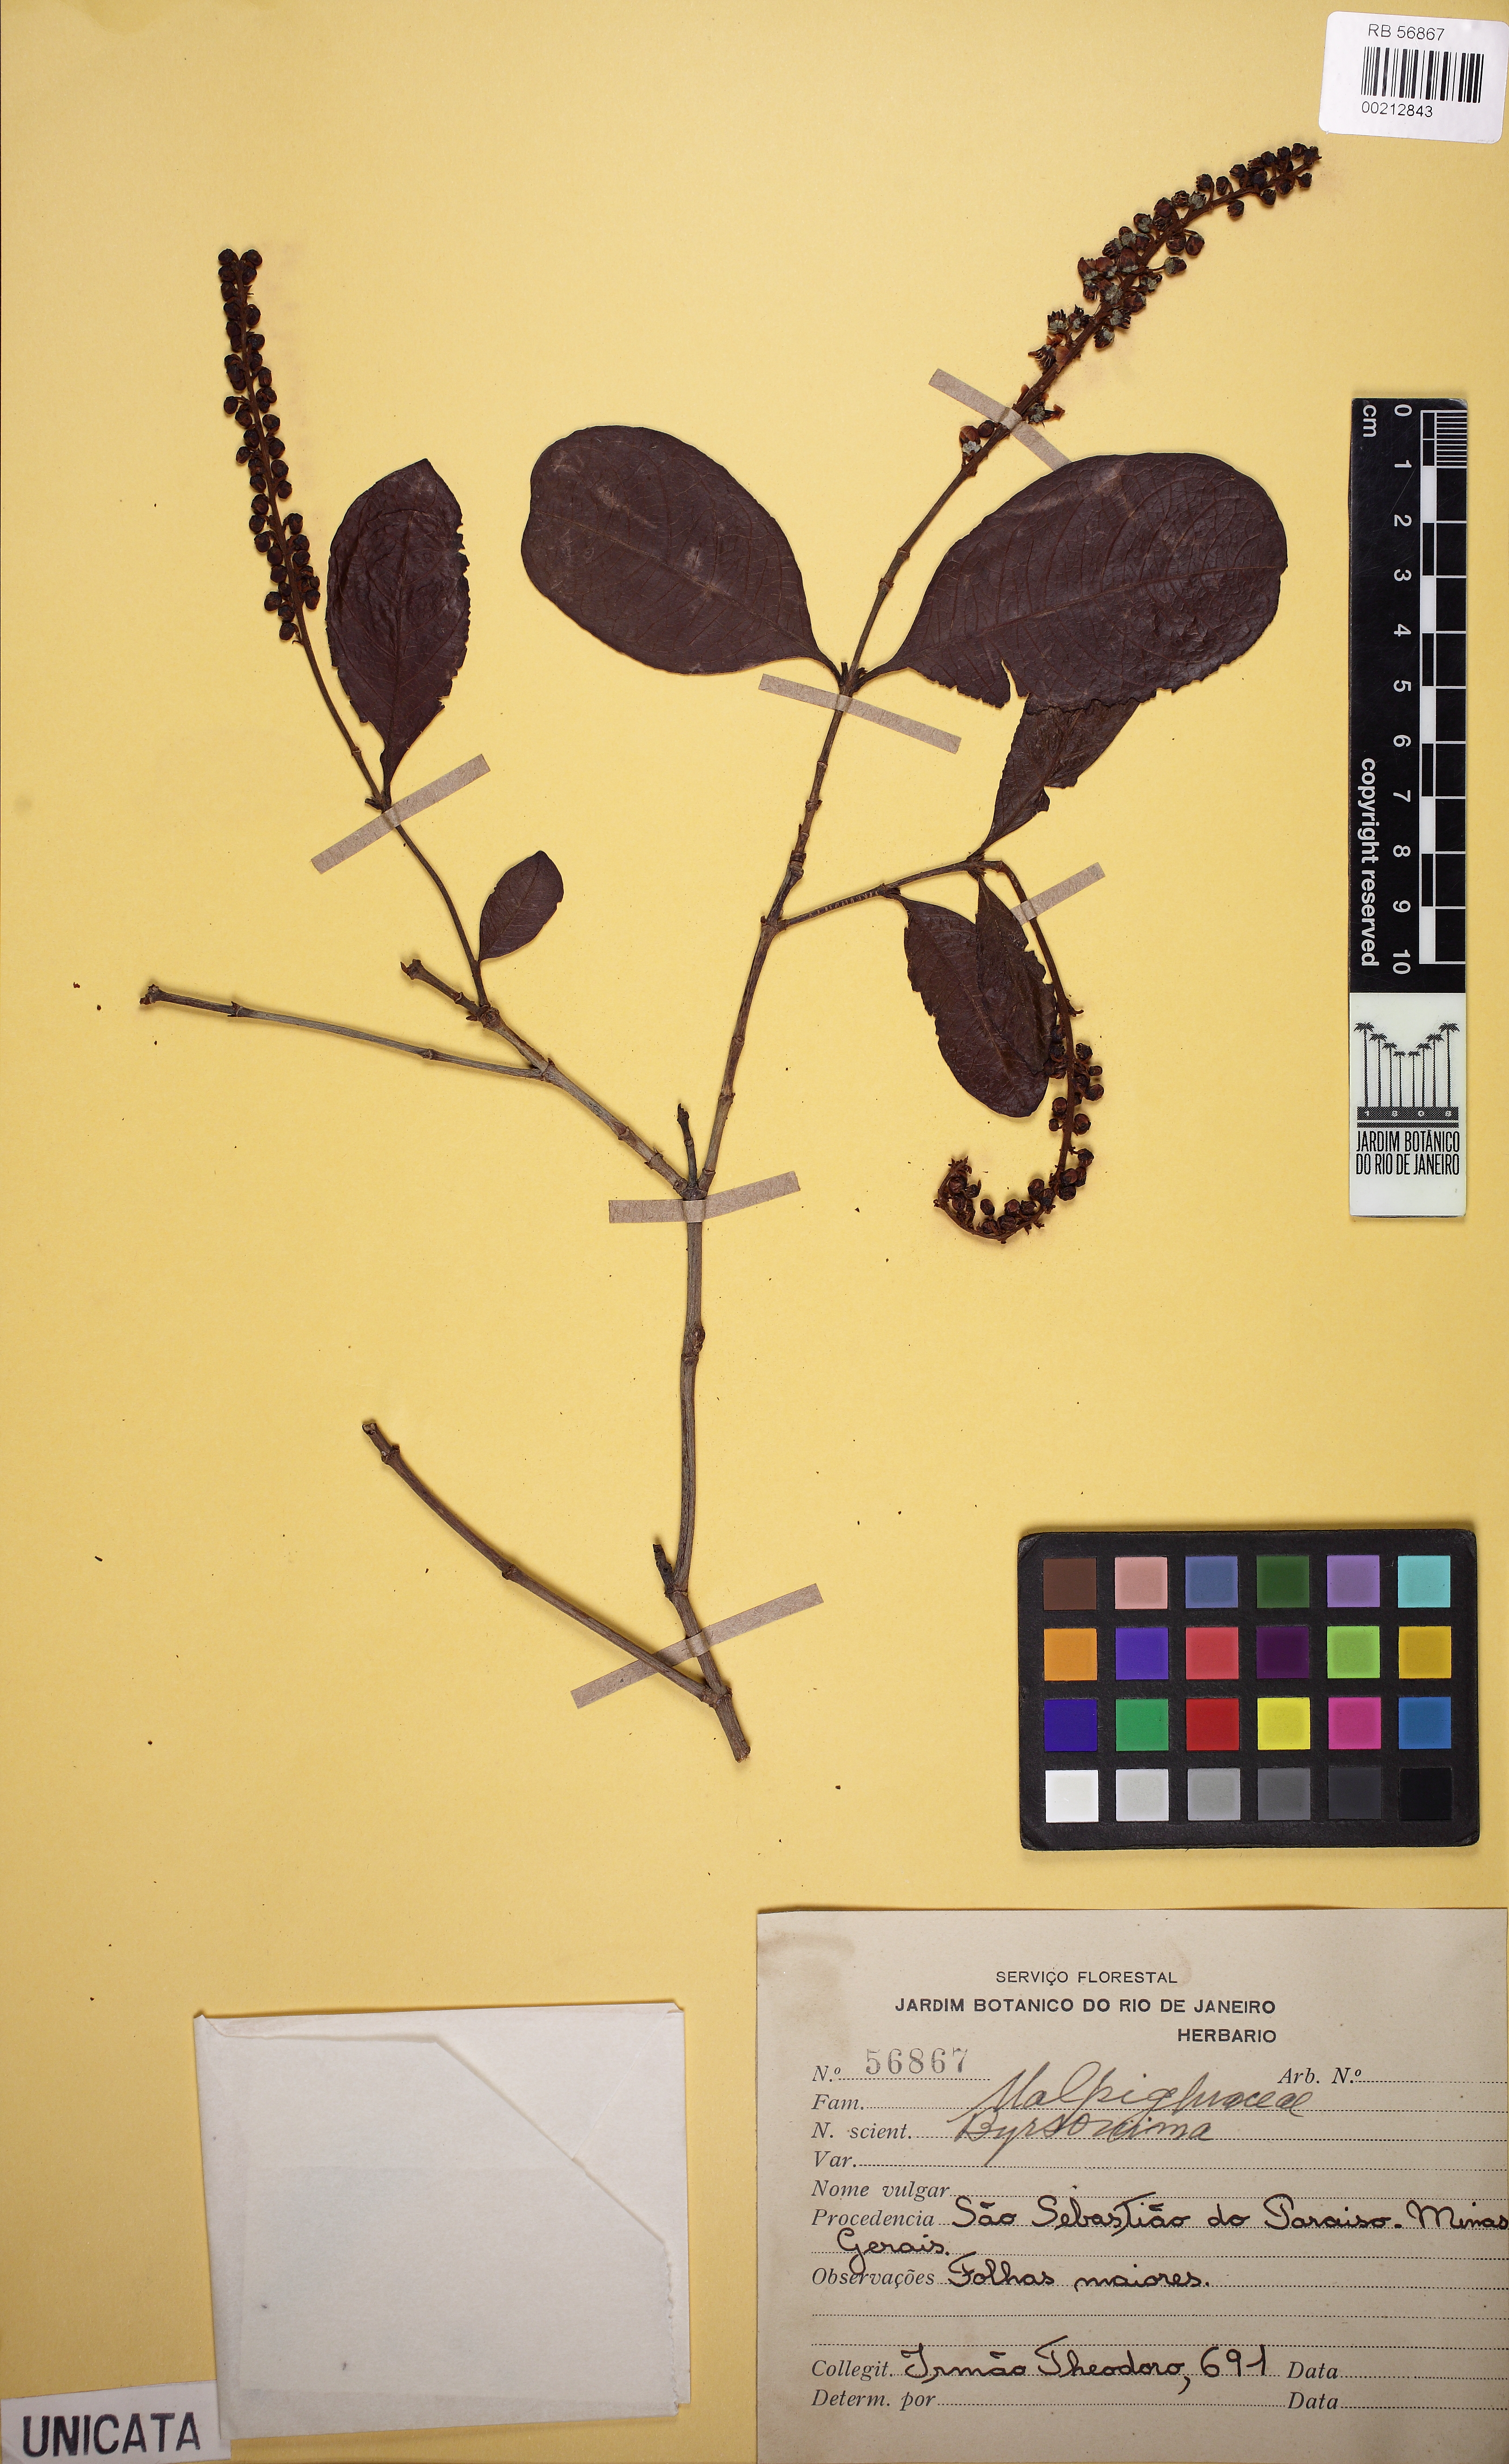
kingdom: Plantae
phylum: Tracheophyta
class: Magnoliopsida
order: Malpighiales
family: Malpighiaceae
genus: Byrsonima
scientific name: Byrsonima
